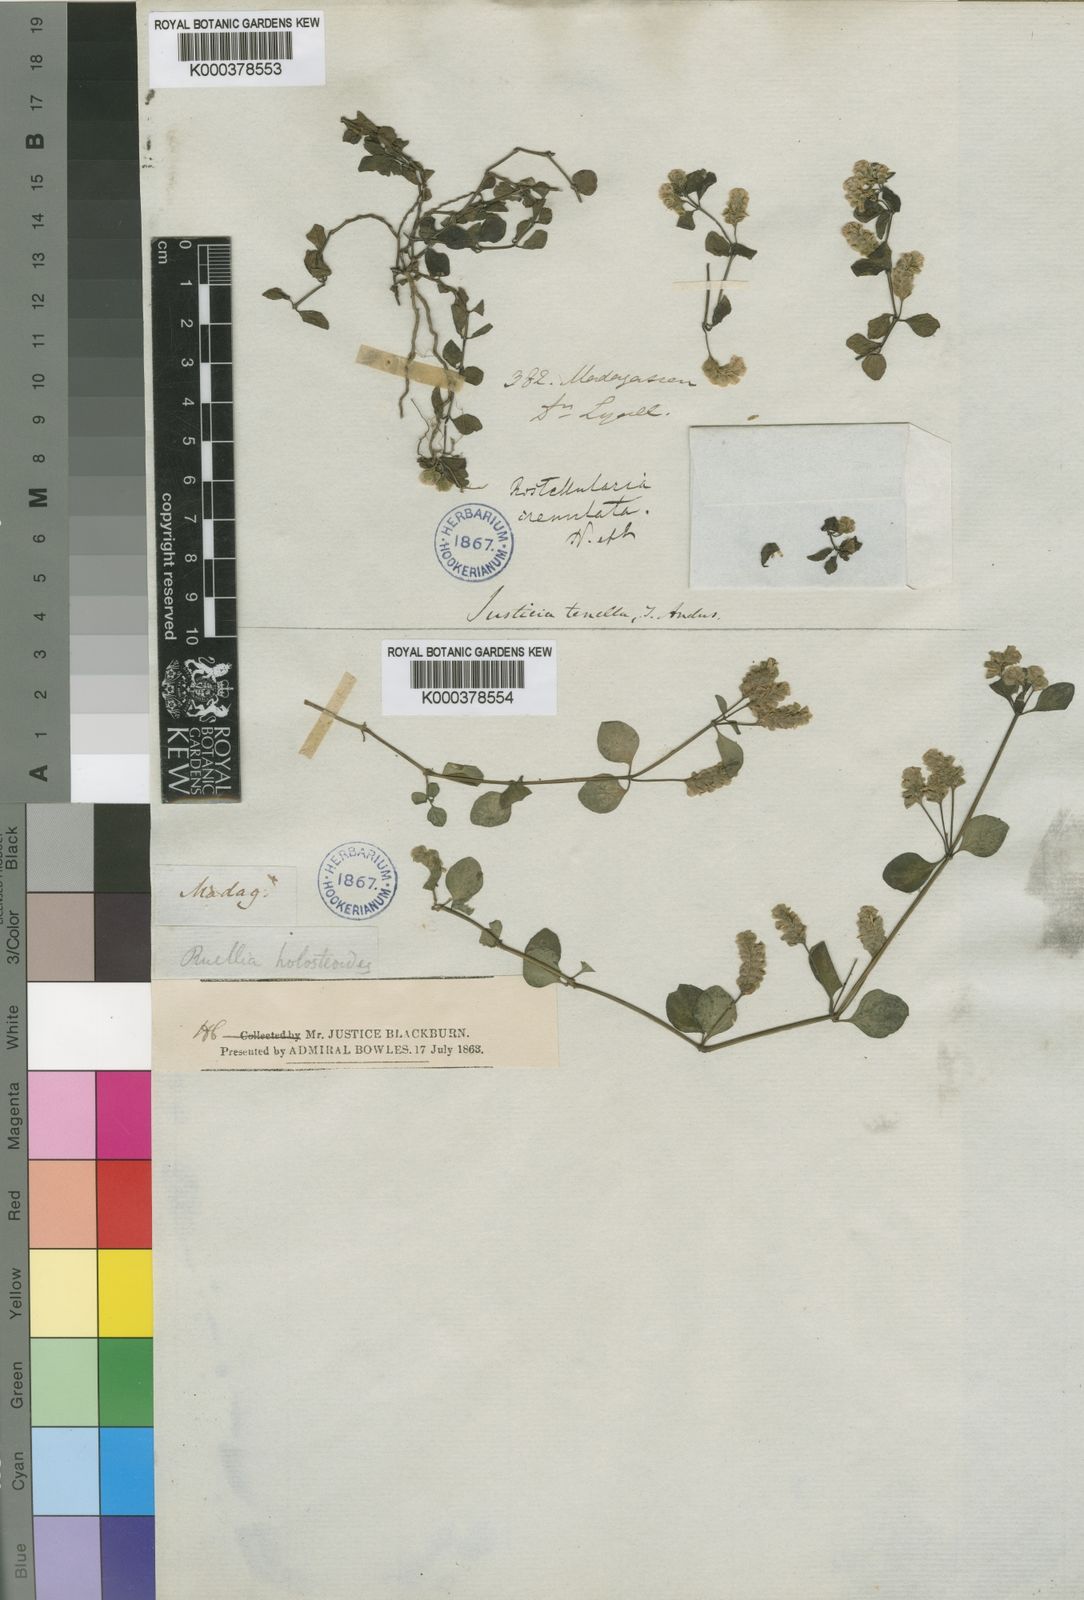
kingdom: Plantae
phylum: Tracheophyta
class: Magnoliopsida
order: Lamiales
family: Acanthaceae
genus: Anisostachya
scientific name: Anisostachya tenella
